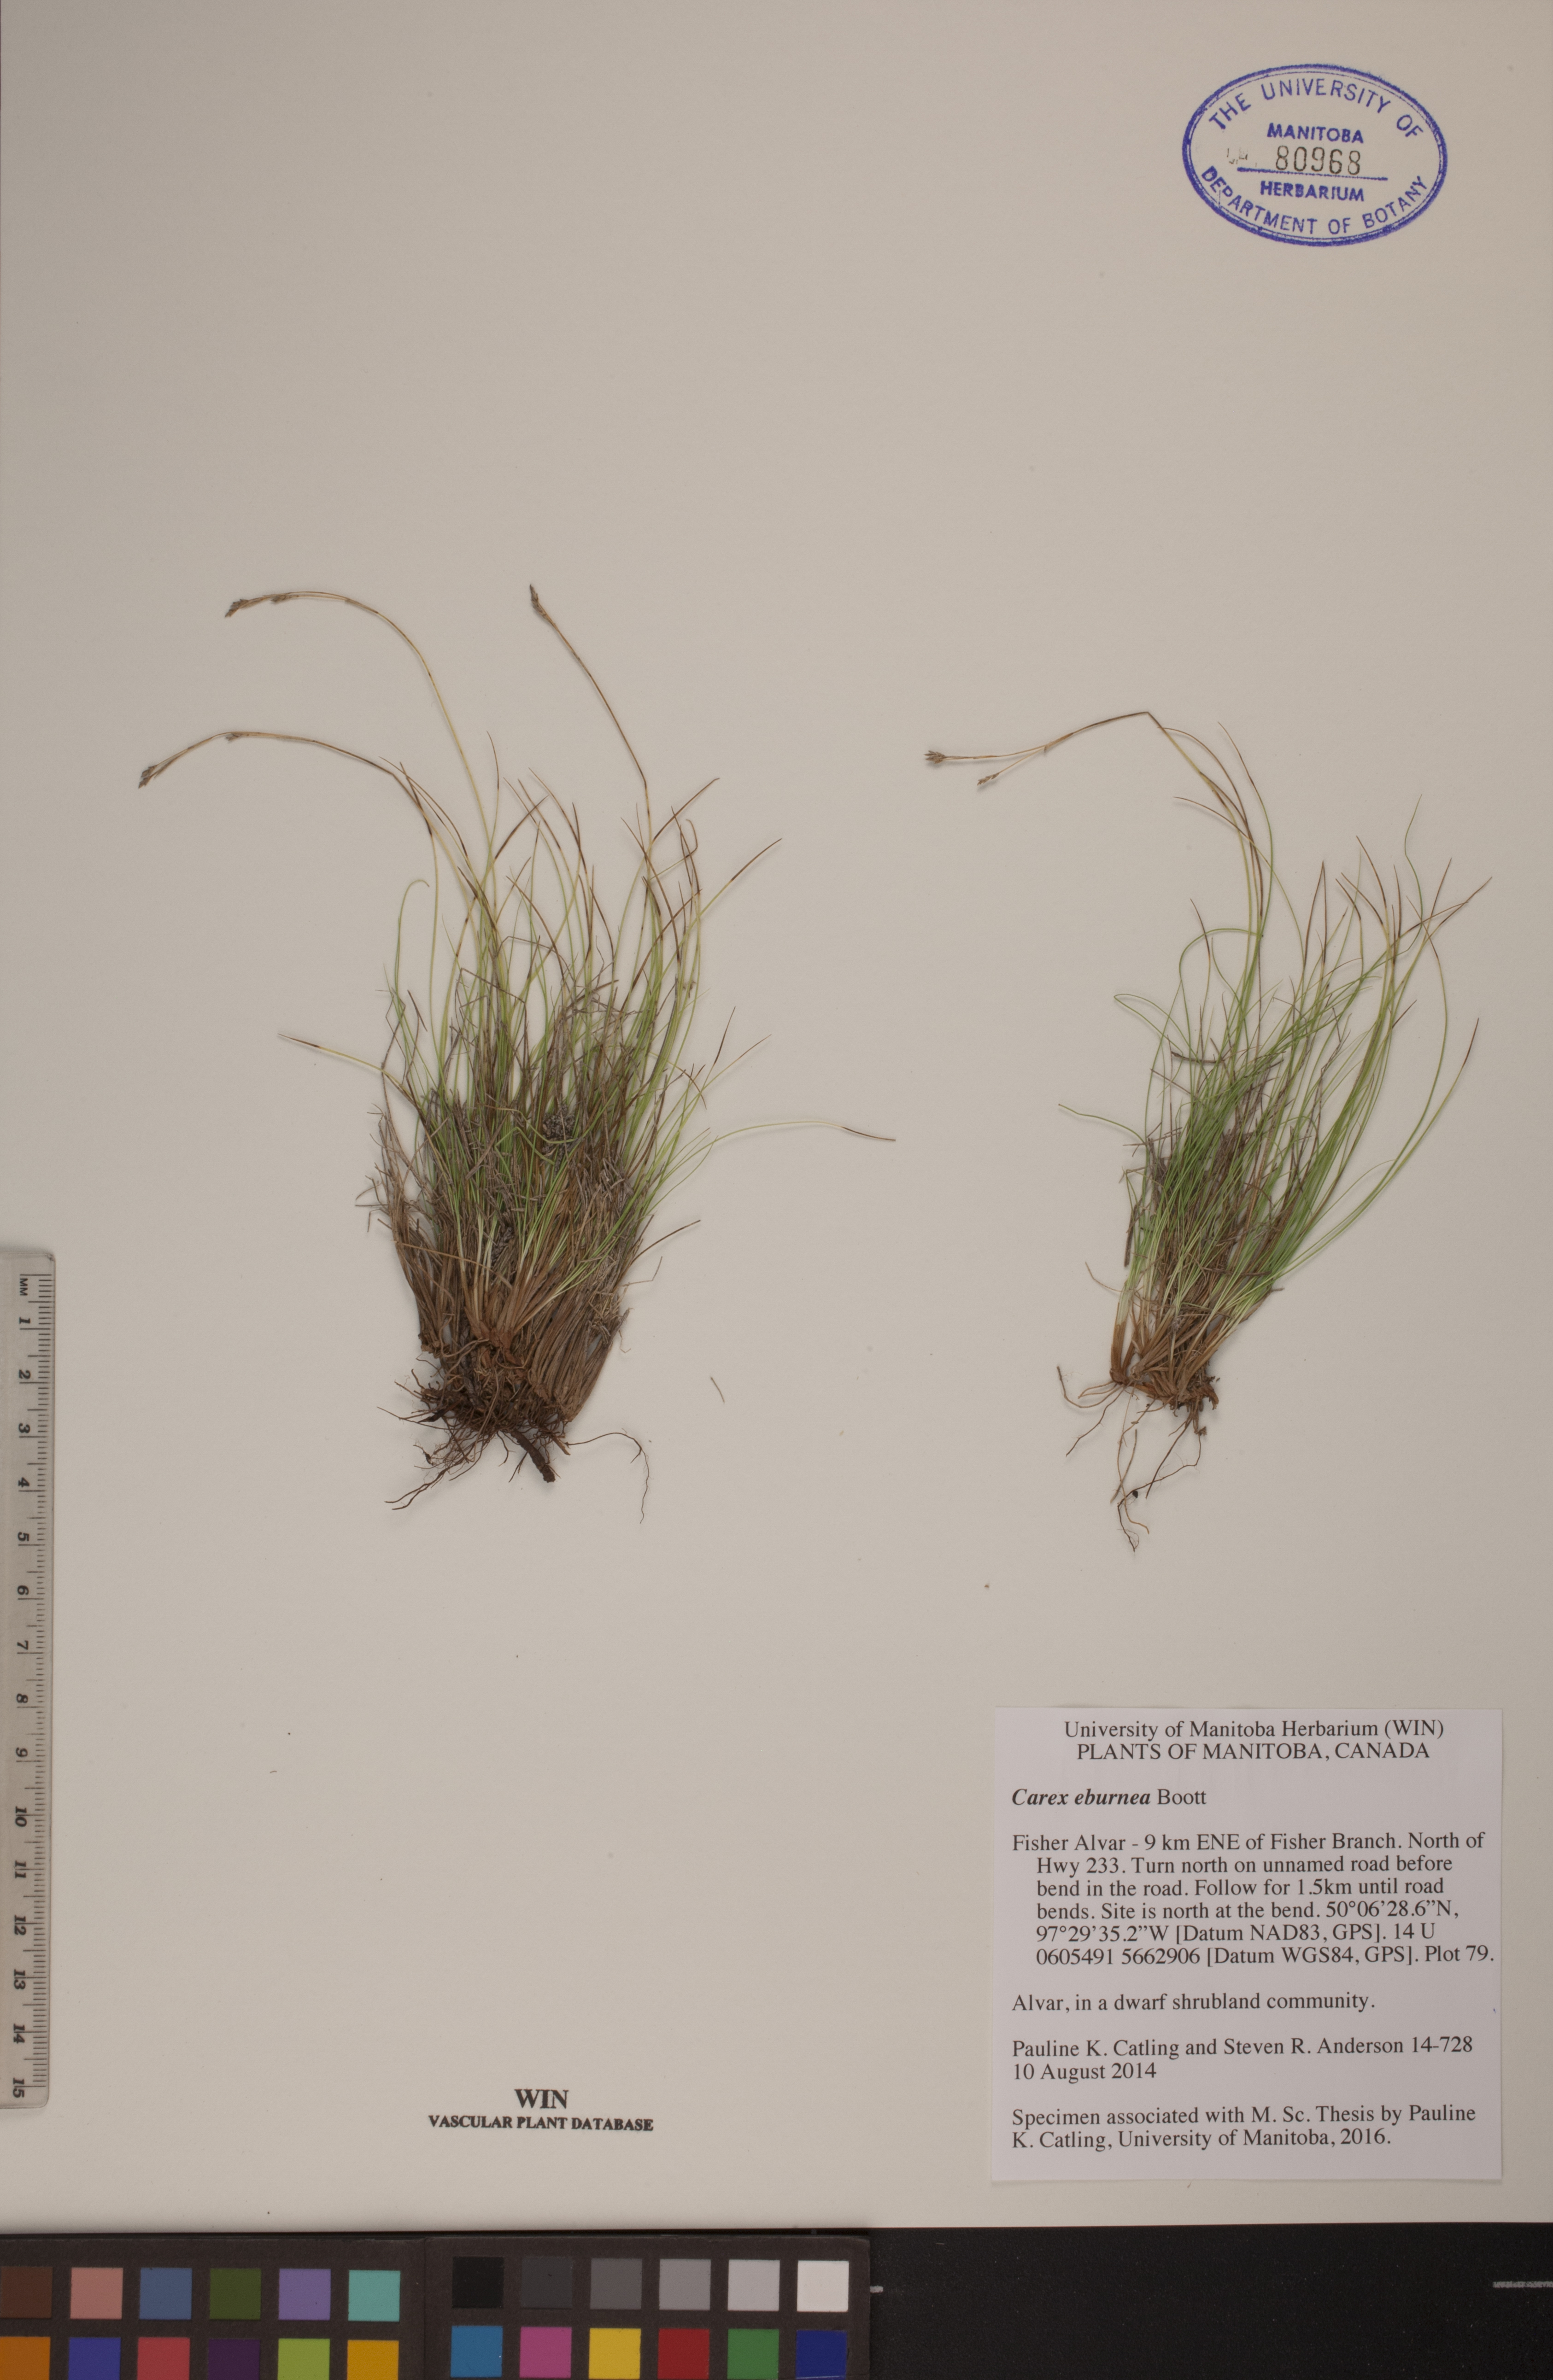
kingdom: Plantae
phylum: Tracheophyta
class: Liliopsida
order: Poales
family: Cyperaceae
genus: Carex
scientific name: Carex eburnea
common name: Bristle-leaved sedge
